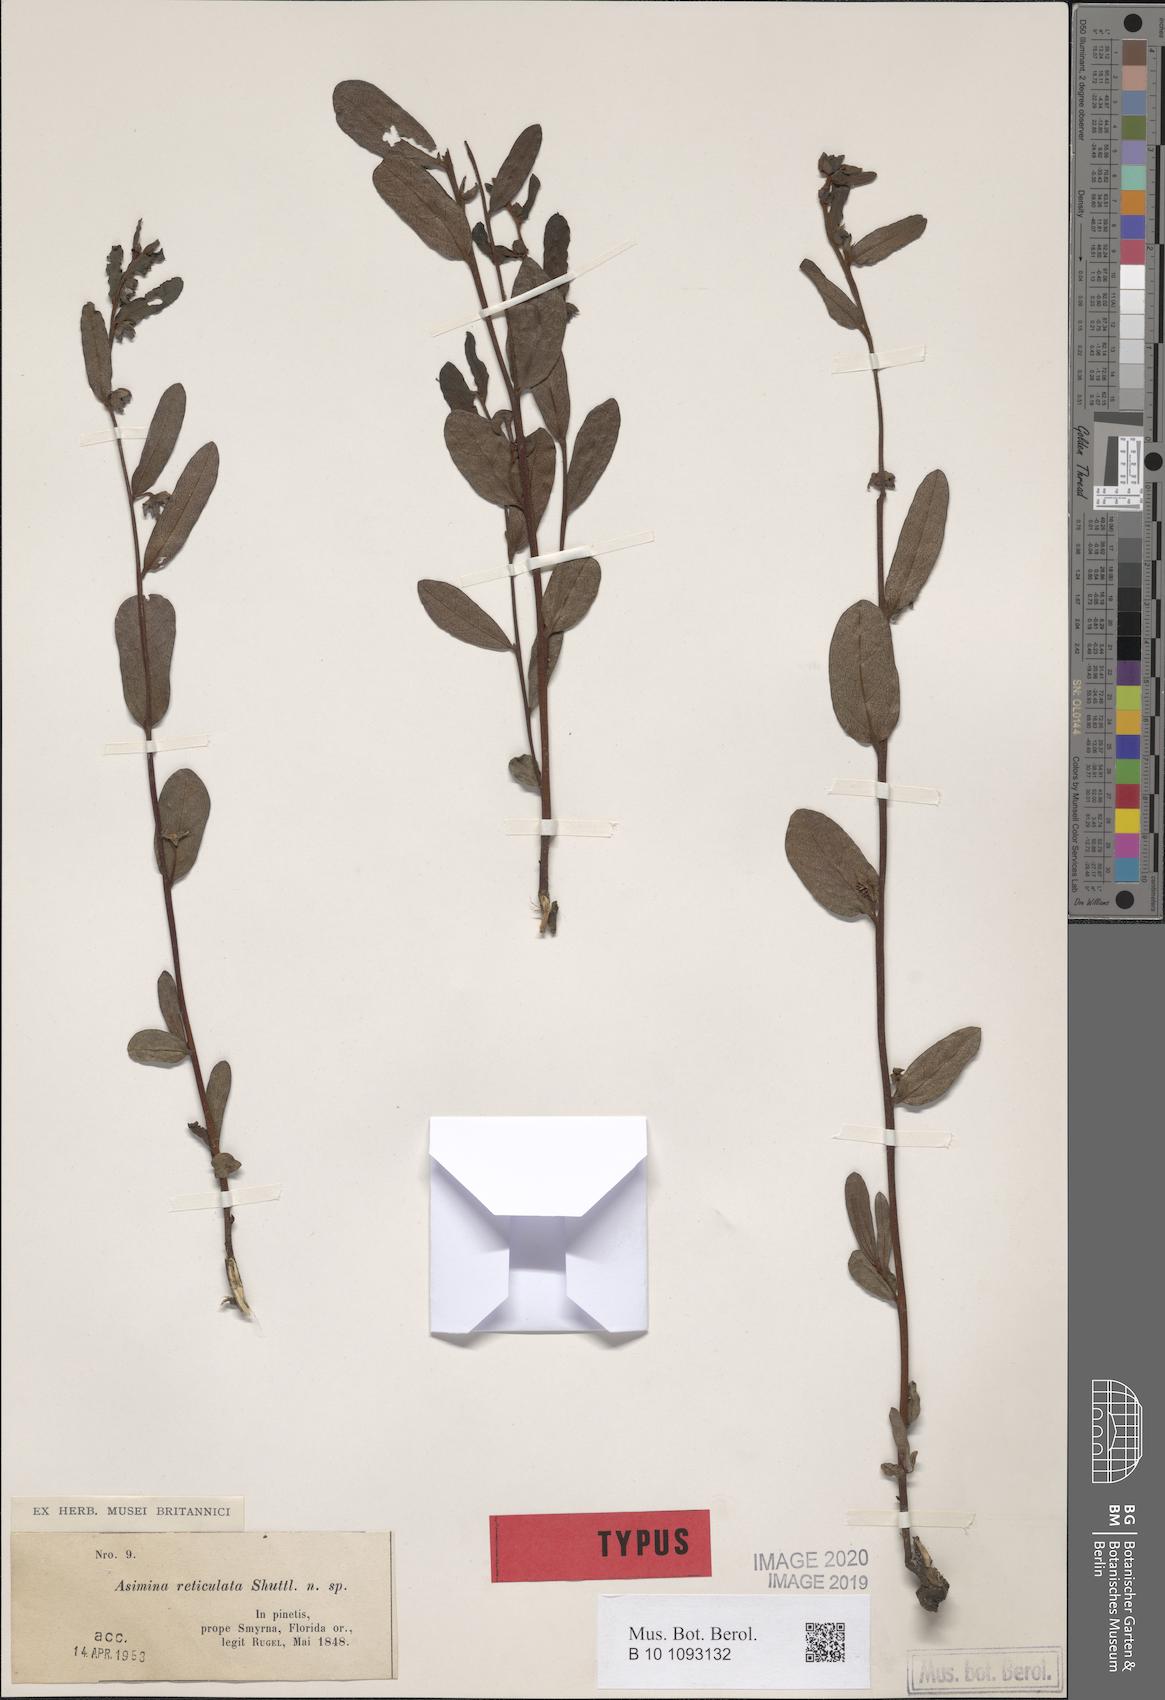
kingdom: Plantae
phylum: Tracheophyta
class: Magnoliopsida
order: Magnoliales
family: Annonaceae
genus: Asimina
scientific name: Asimina reticulata
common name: Flag pawpaw
